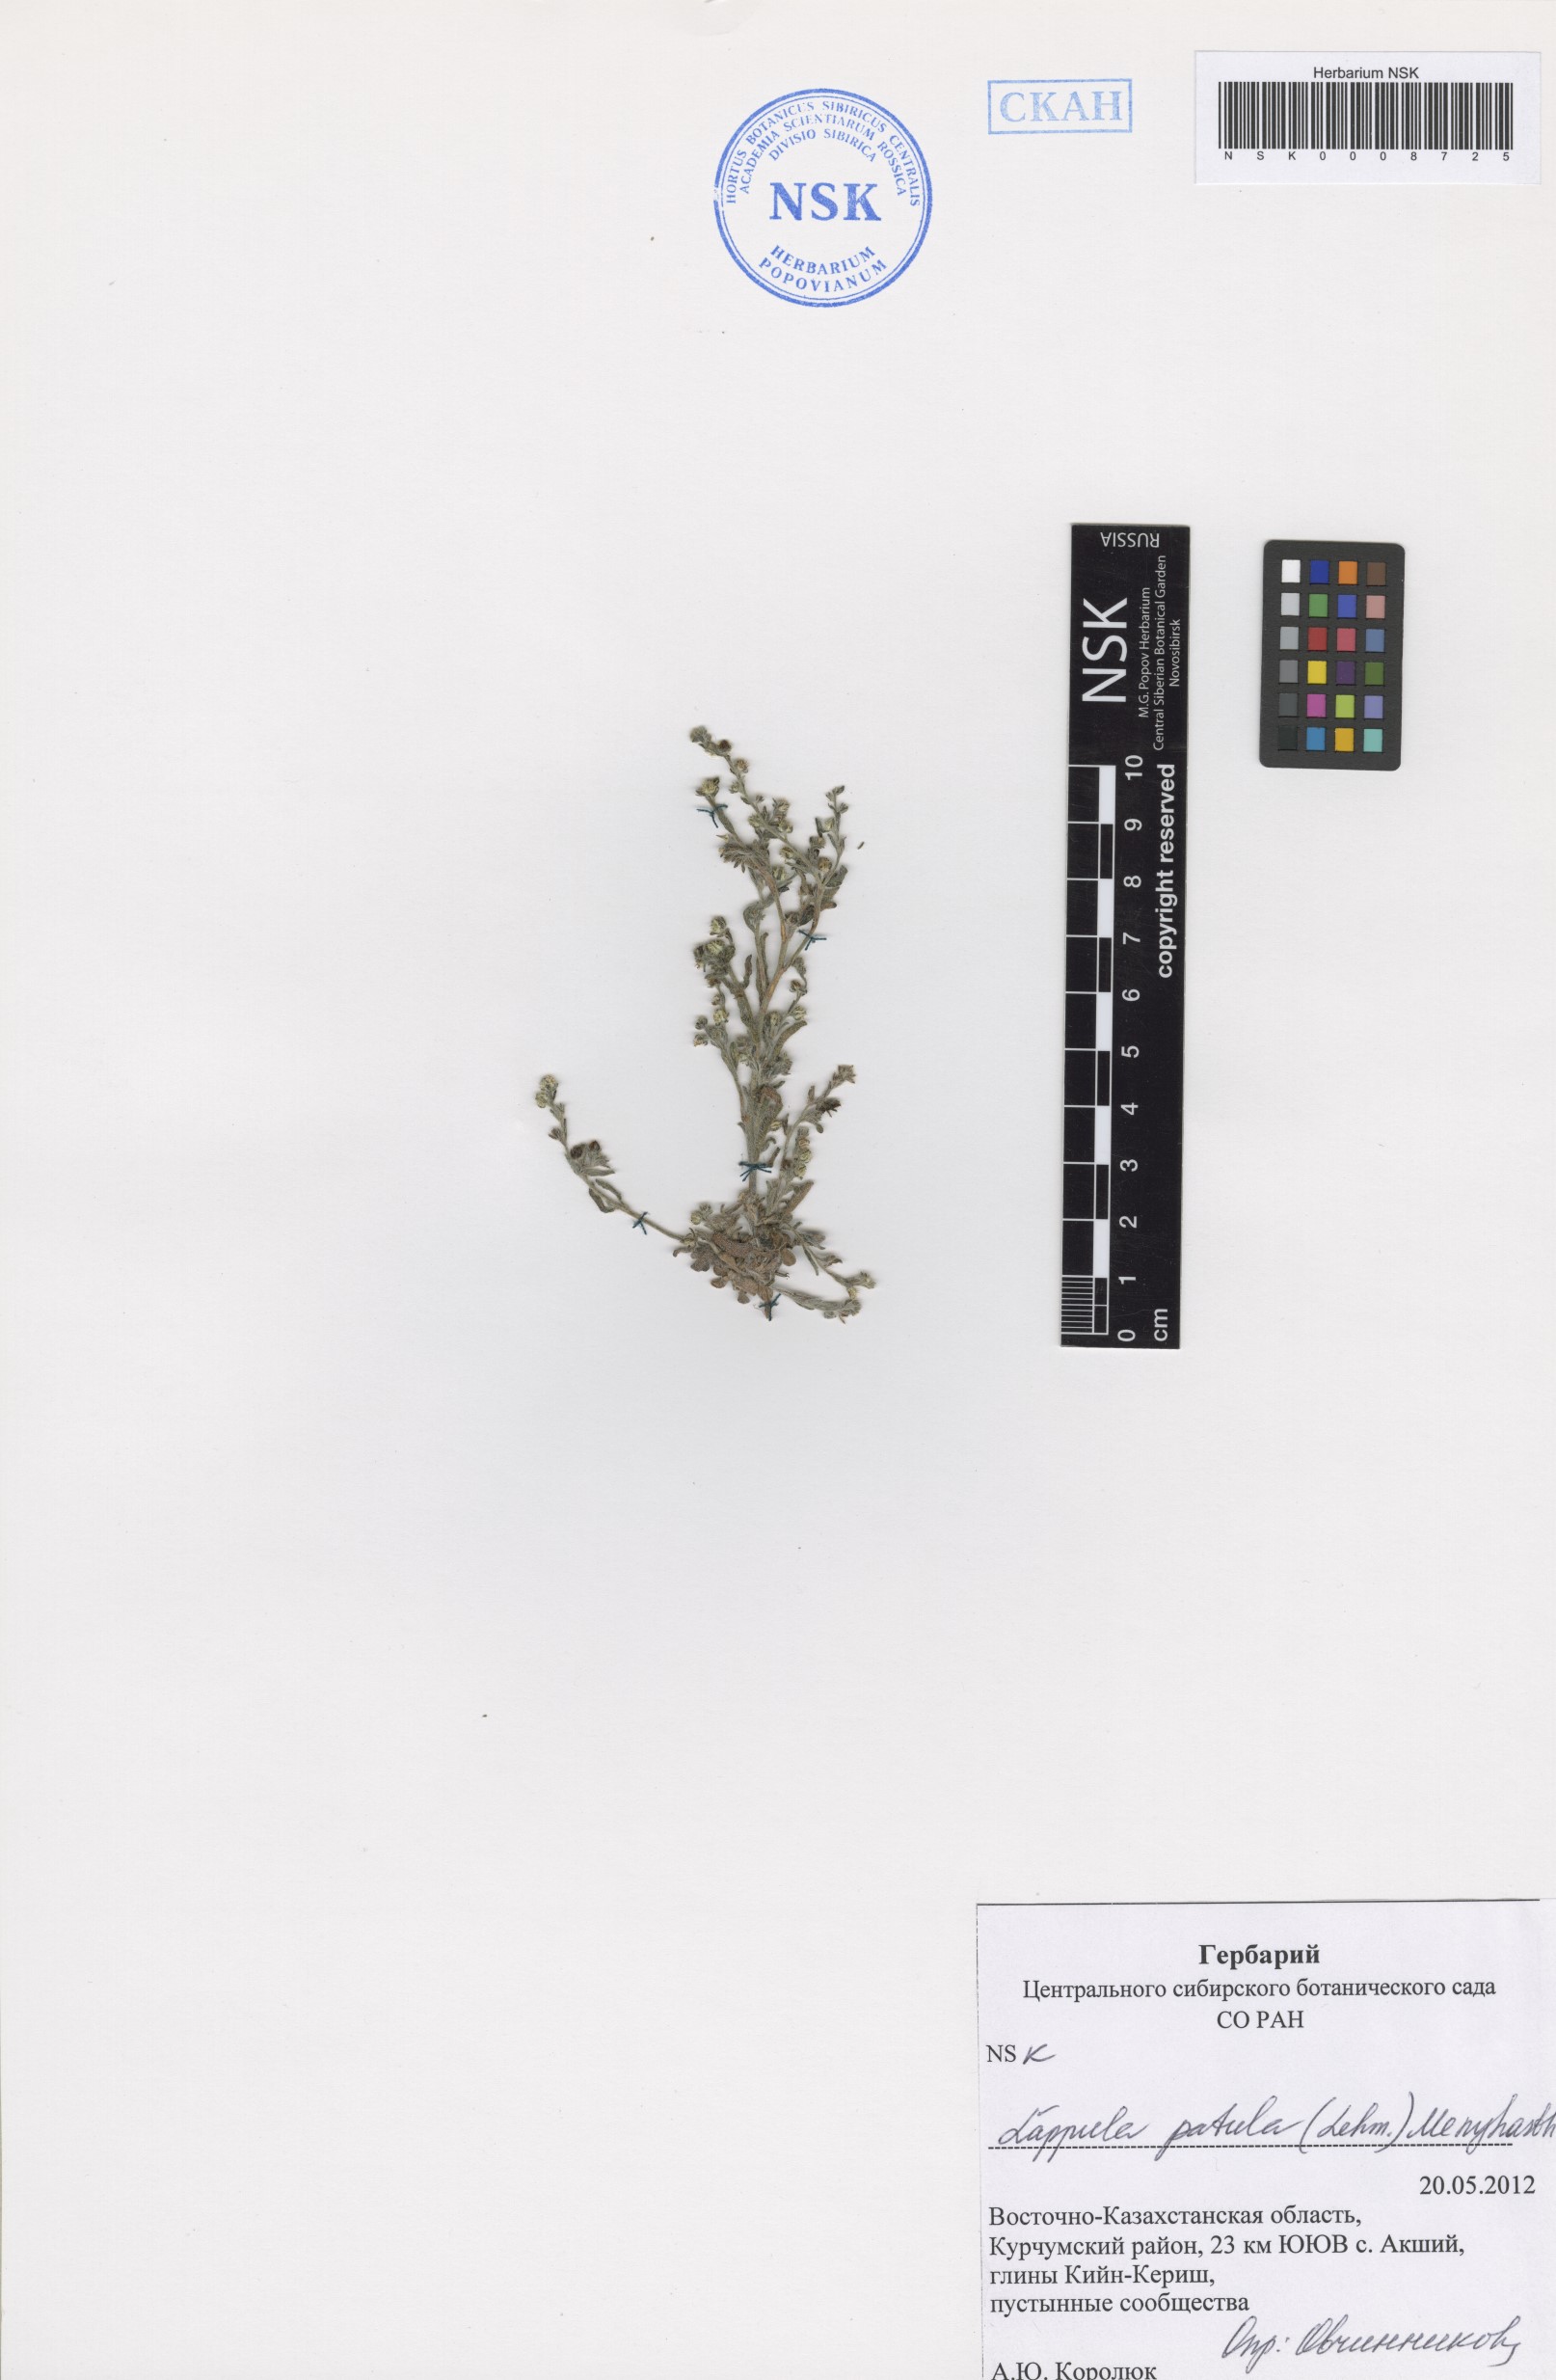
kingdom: Plantae
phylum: Tracheophyta
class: Magnoliopsida
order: Boraginales
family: Boraginaceae
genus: Lappula
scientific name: Lappula patula
